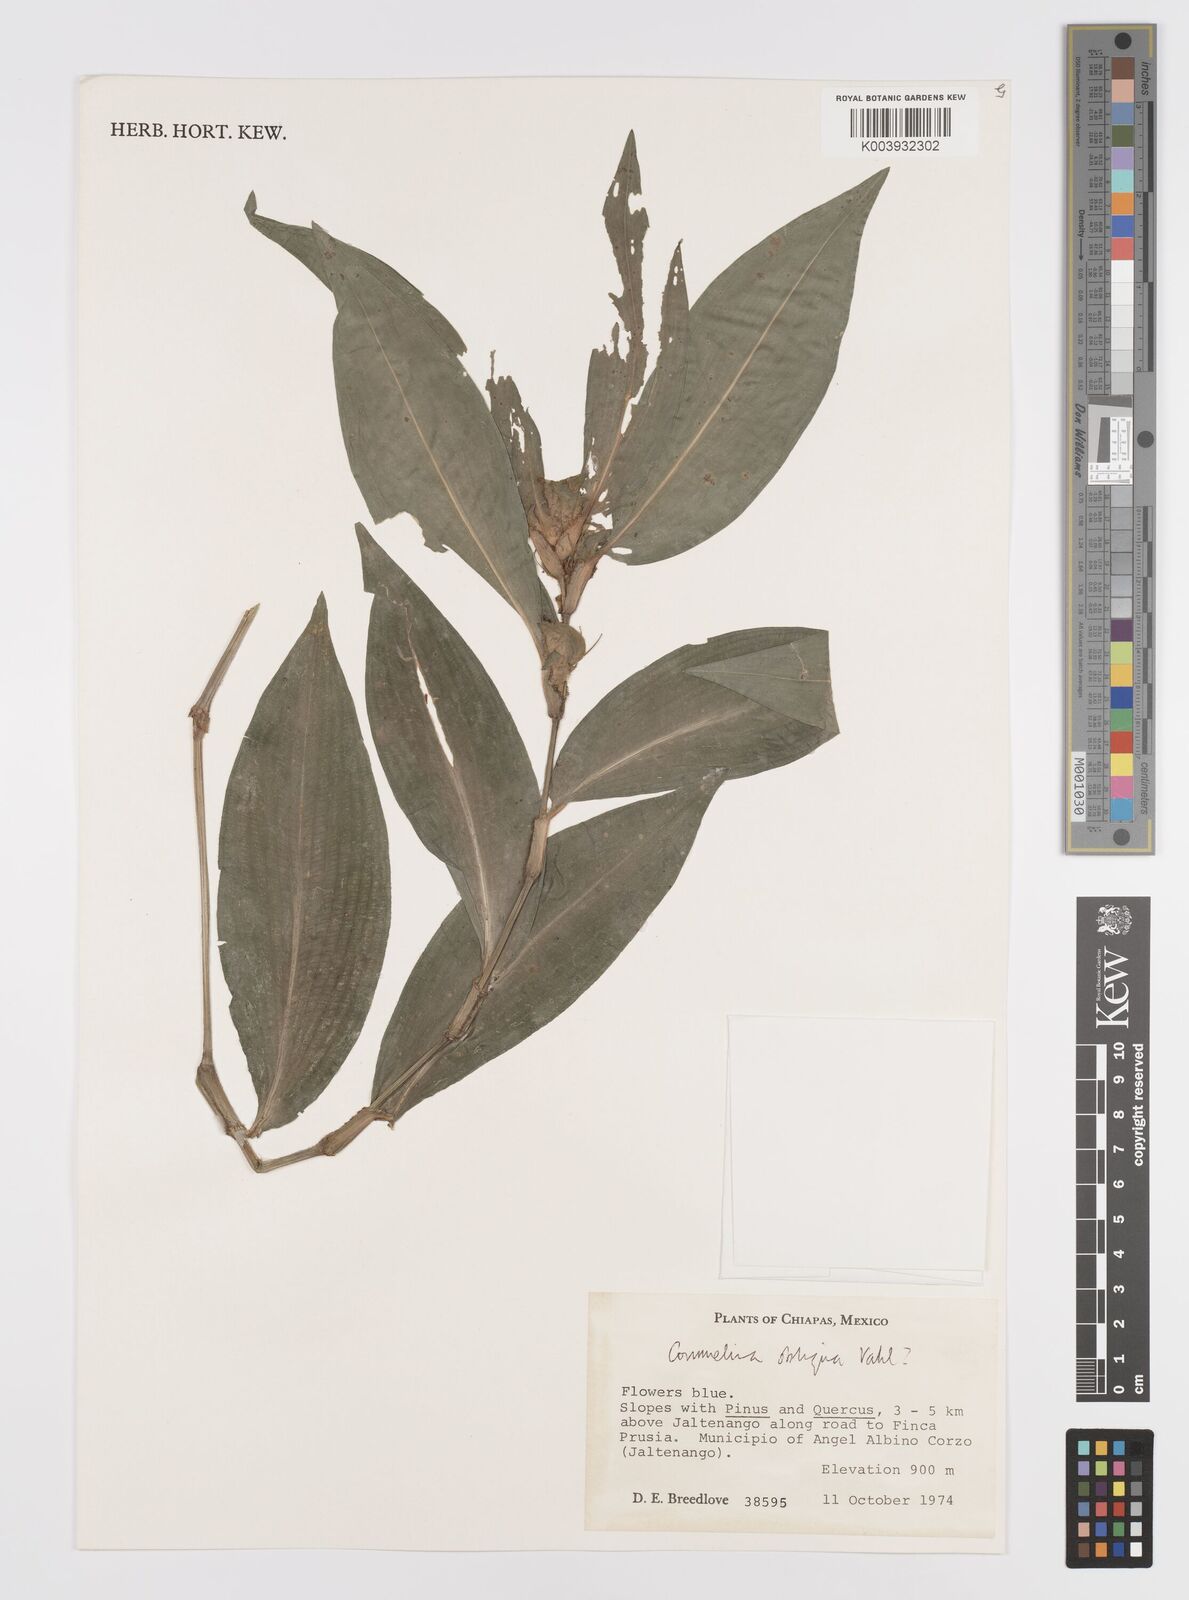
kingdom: Plantae
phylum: Tracheophyta
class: Liliopsida
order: Commelinales
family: Commelinaceae
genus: Commelina
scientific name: Commelina obliqua
